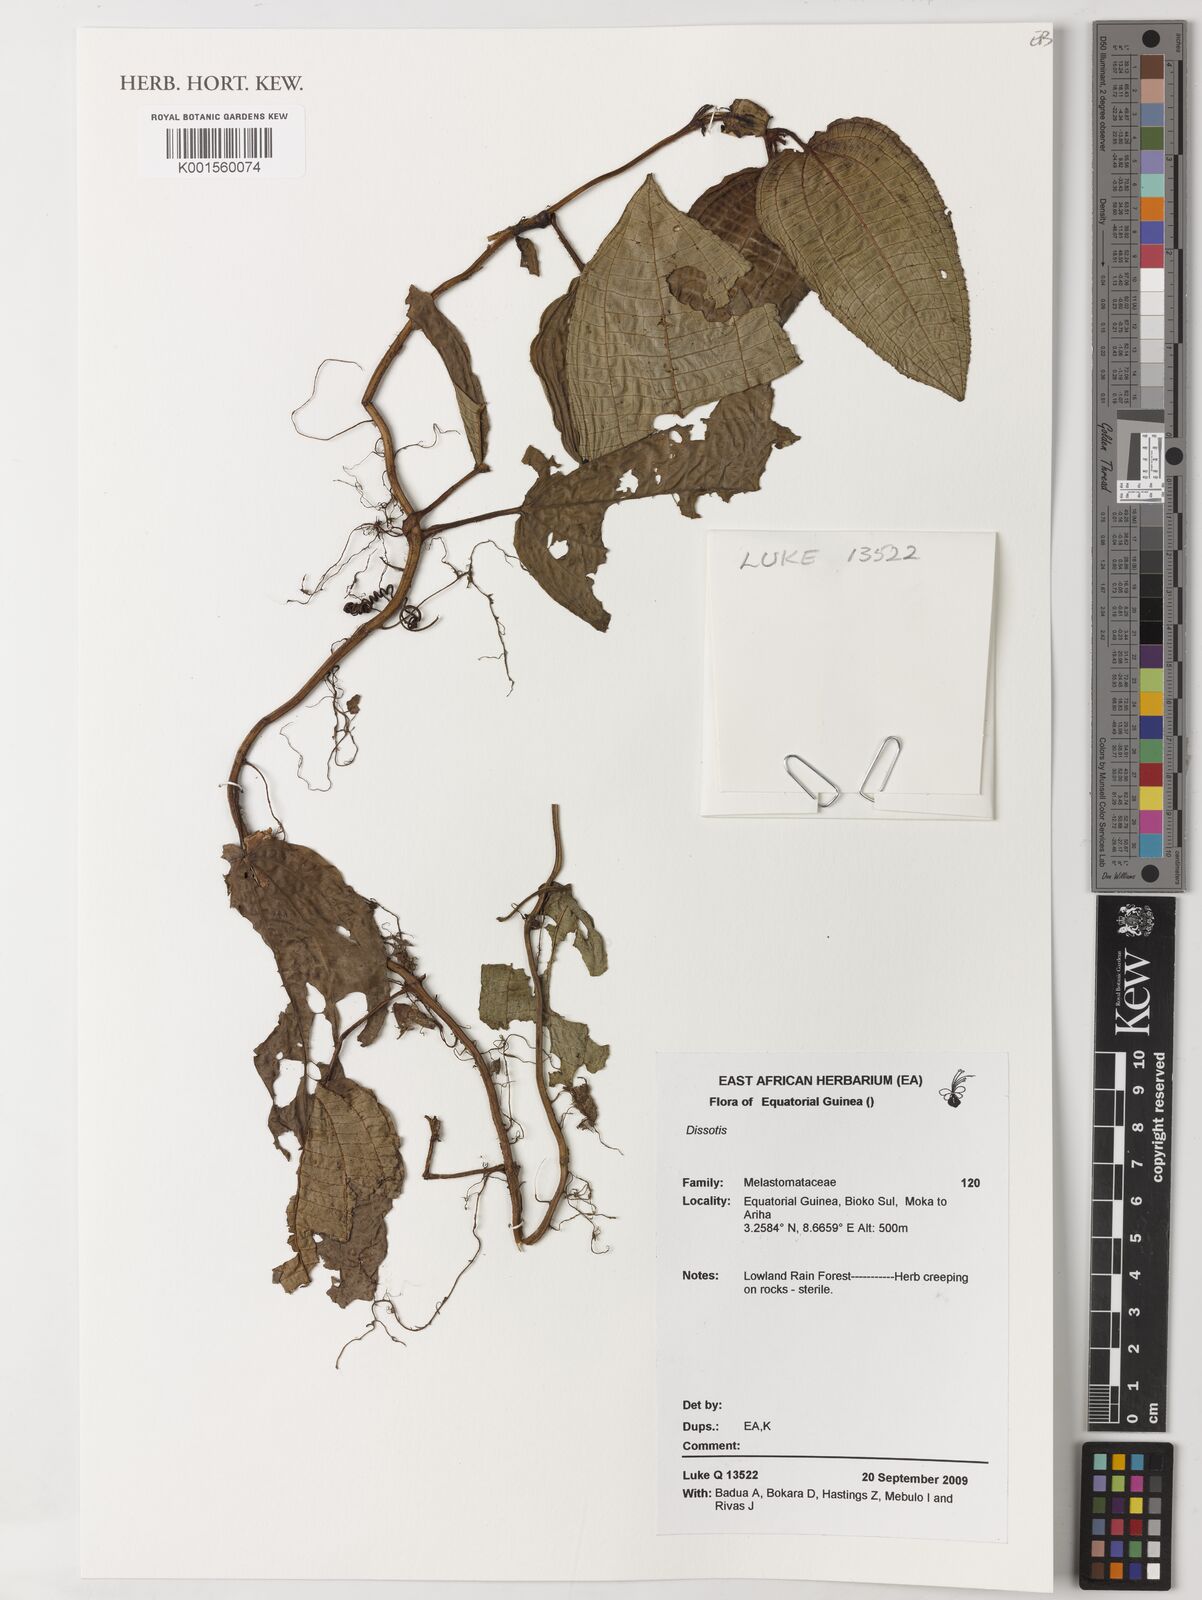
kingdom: Plantae
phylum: Tracheophyta
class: Magnoliopsida
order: Myrtales
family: Melastomataceae
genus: Dissotis
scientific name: Dissotis
